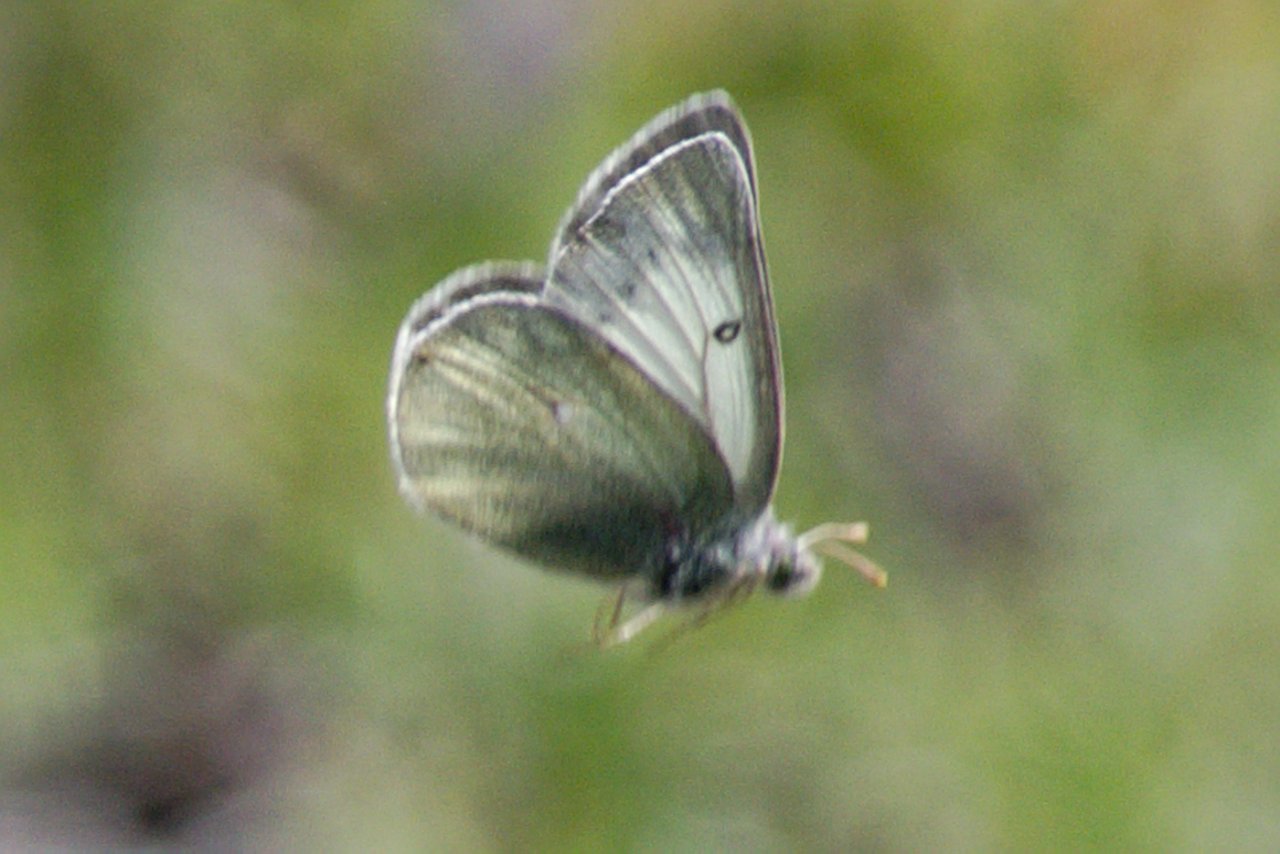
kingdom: Animalia
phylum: Arthropoda
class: Insecta
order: Lepidoptera
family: Pieridae
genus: Colias
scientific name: Colias nastes
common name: Labrador Sulphur
